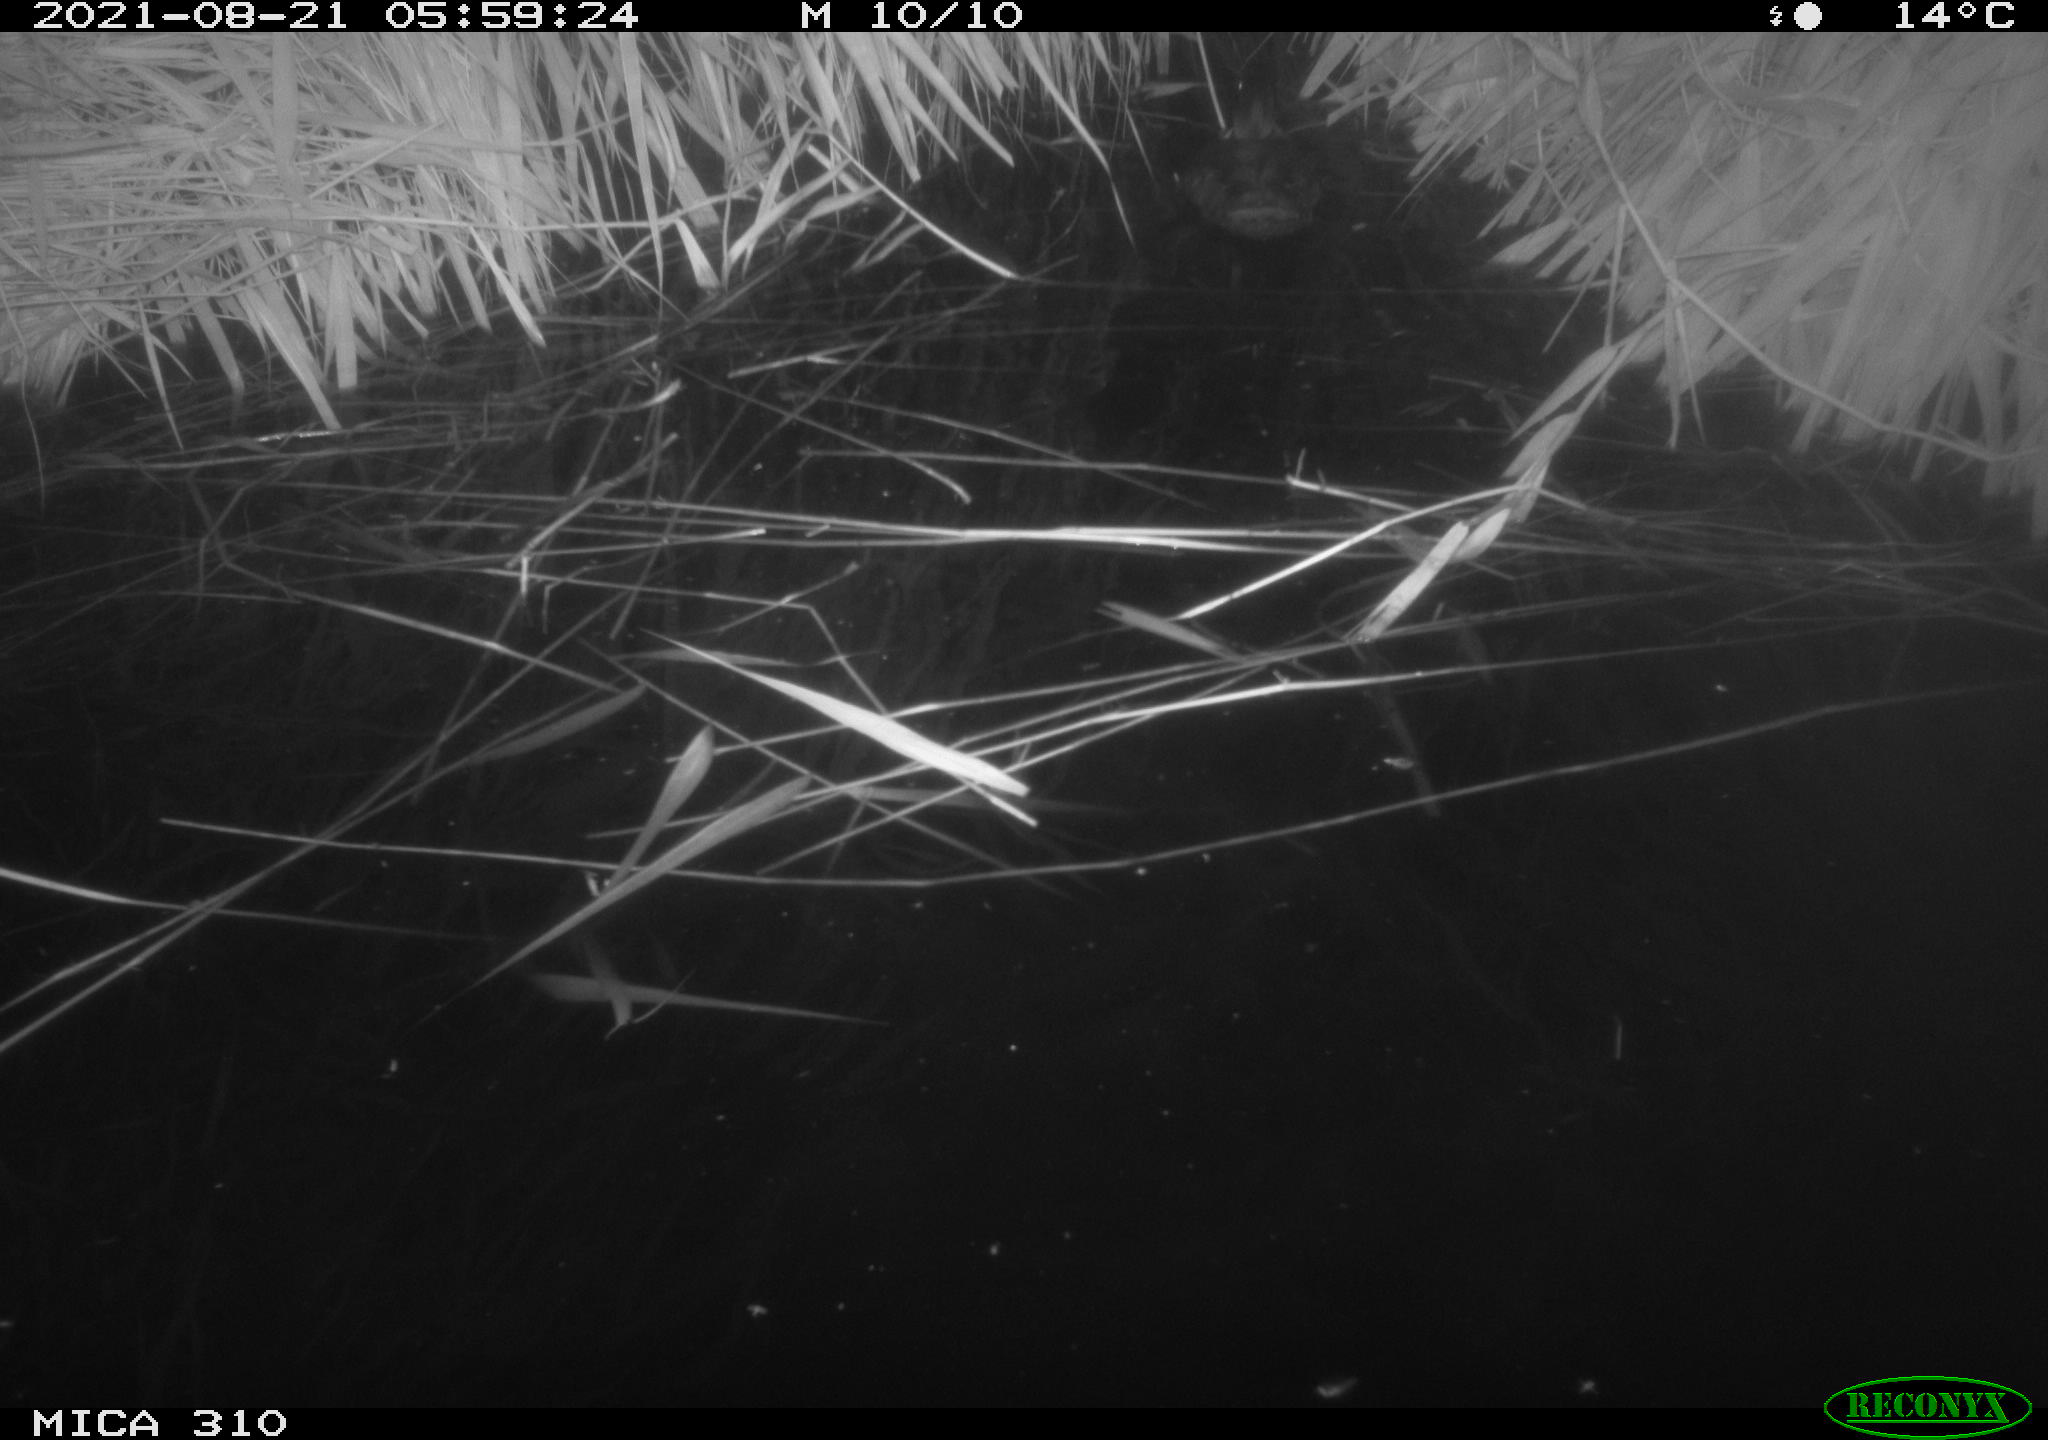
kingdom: Animalia
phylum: Chordata
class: Aves
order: Anseriformes
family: Anatidae
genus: Anas
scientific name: Anas platyrhynchos
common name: Mallard
